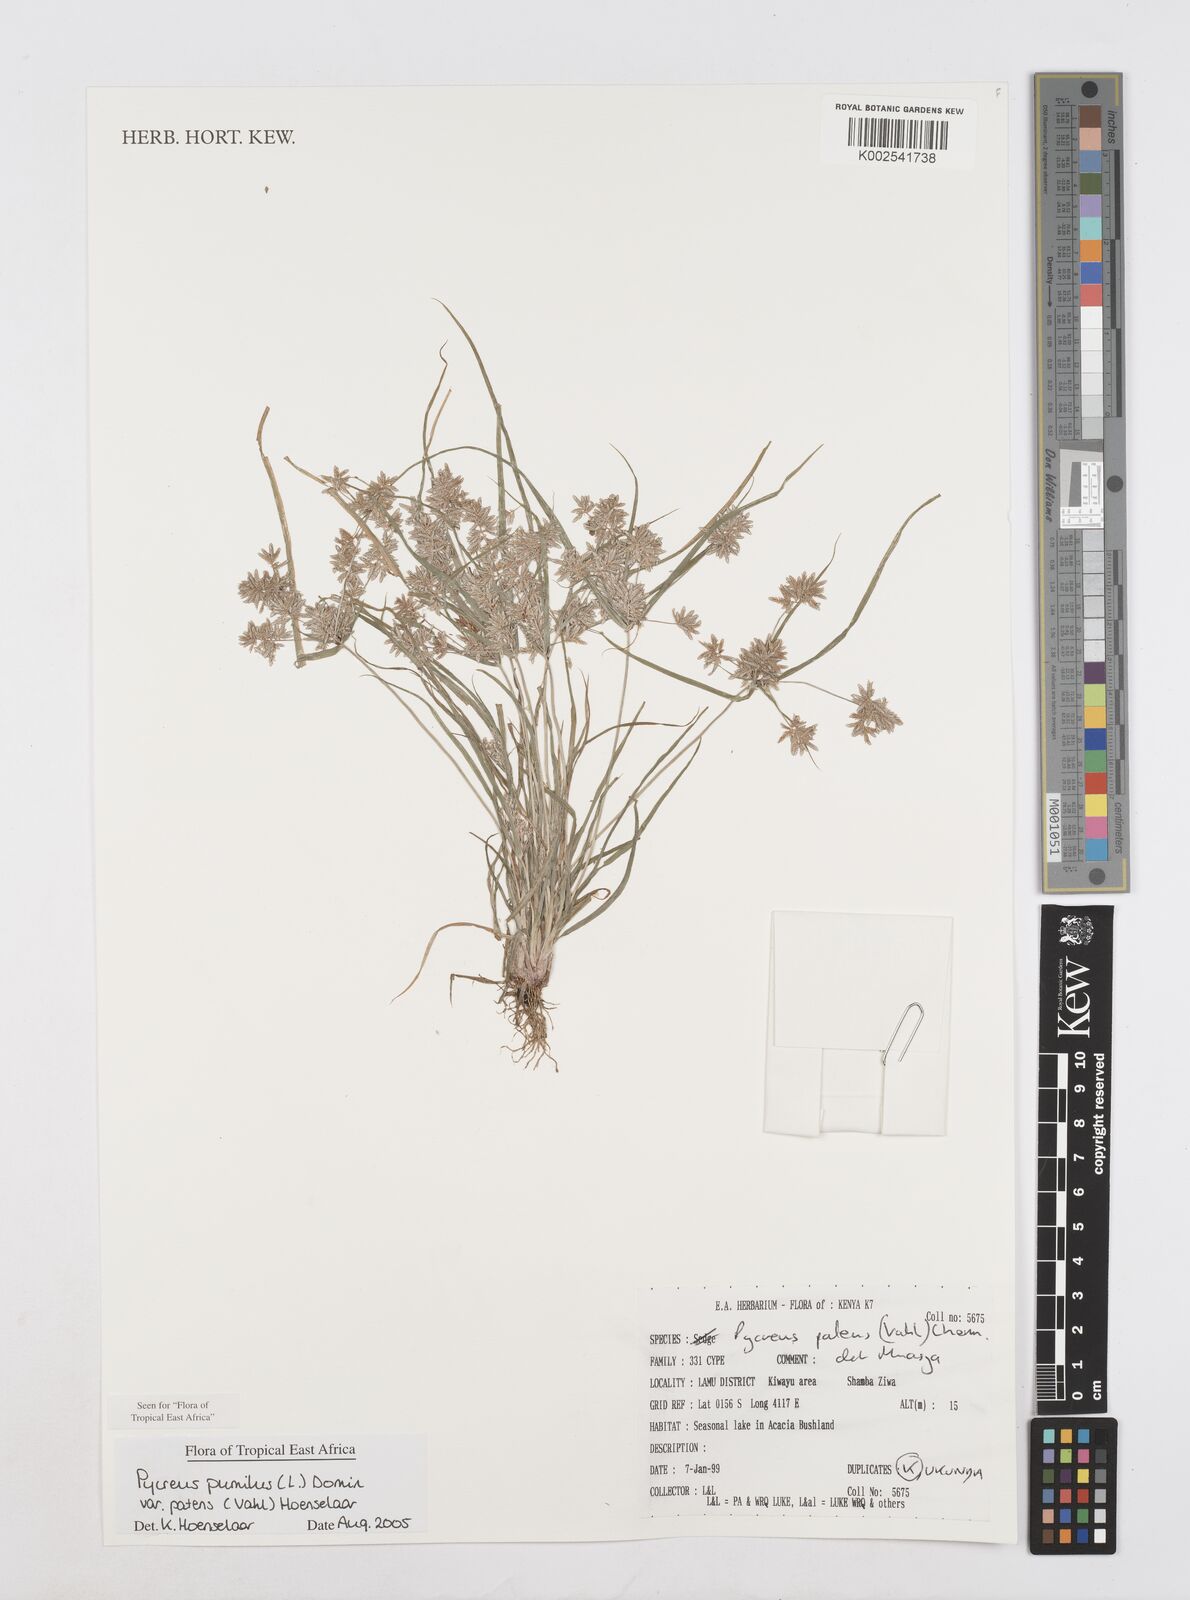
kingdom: Plantae
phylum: Tracheophyta
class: Liliopsida
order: Poales
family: Cyperaceae
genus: Cyperus
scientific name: Cyperus pumilus
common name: Low flatsedge
